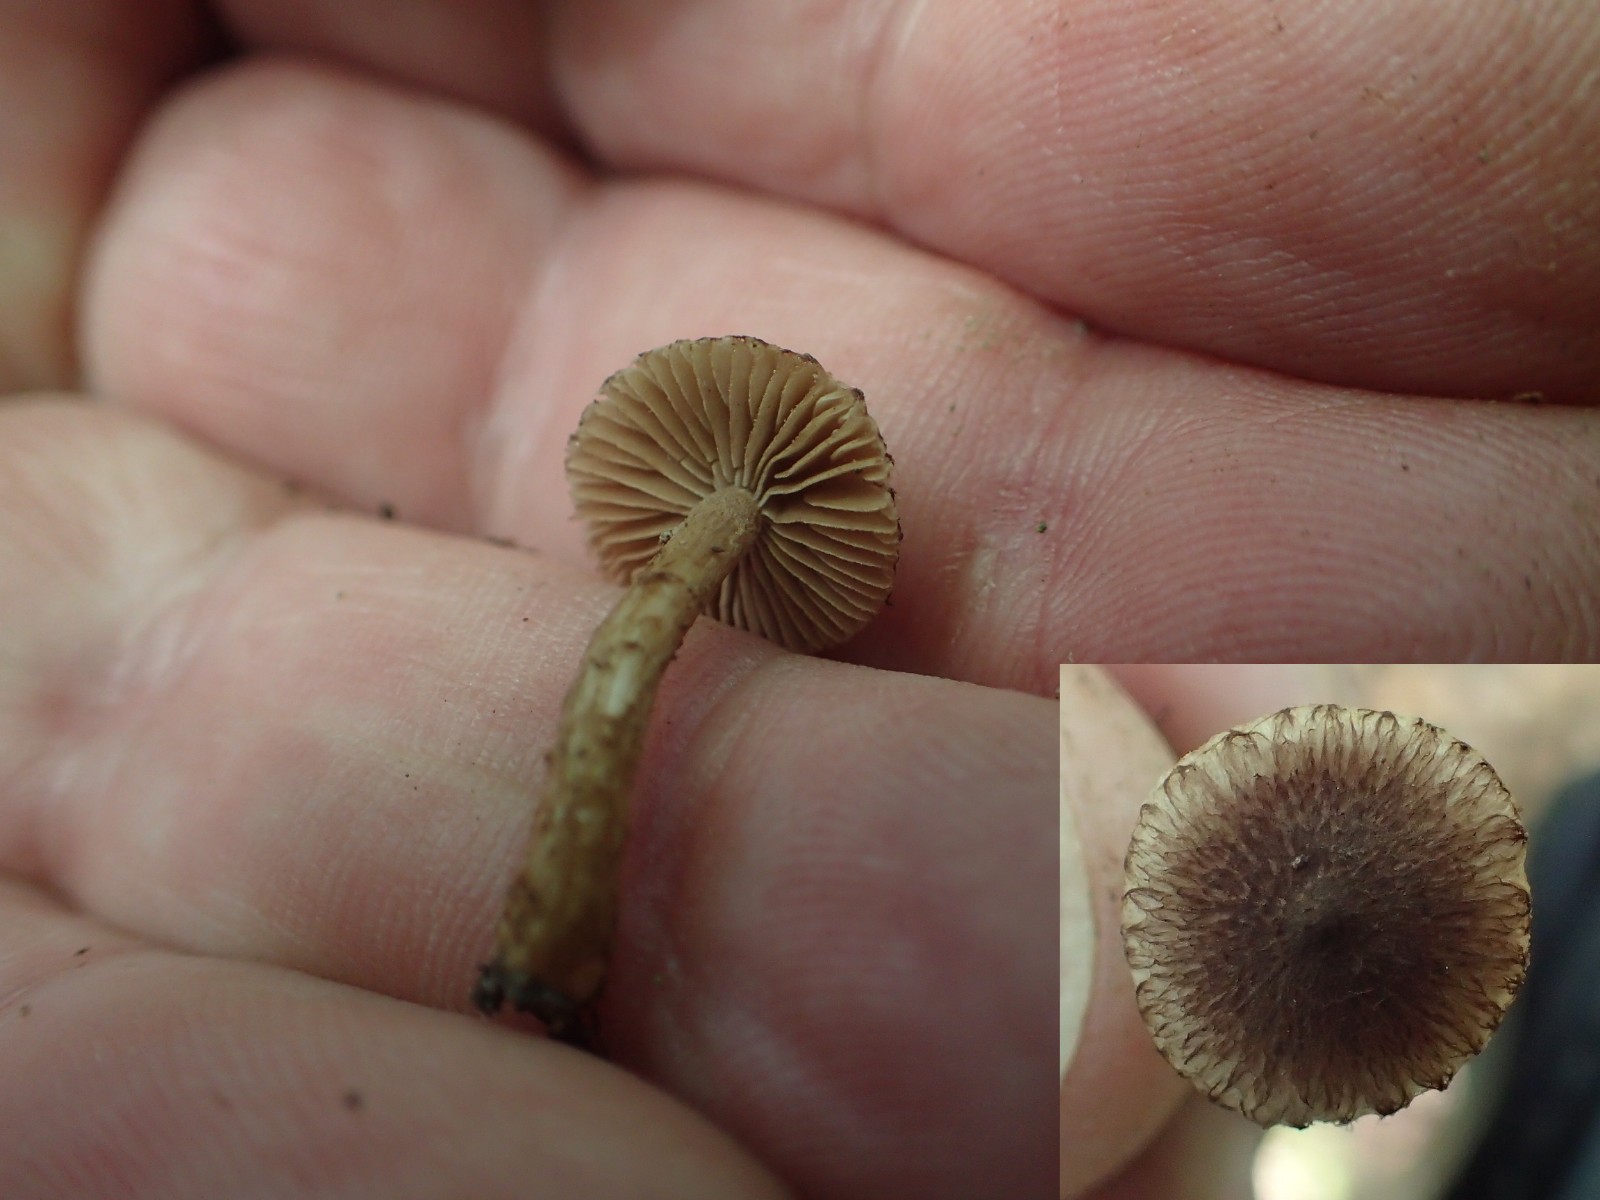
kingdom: Fungi
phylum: Basidiomycota
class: Agaricomycetes
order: Agaricales
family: Inocybaceae
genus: Inocybe
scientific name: Inocybe
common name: trævlhat
